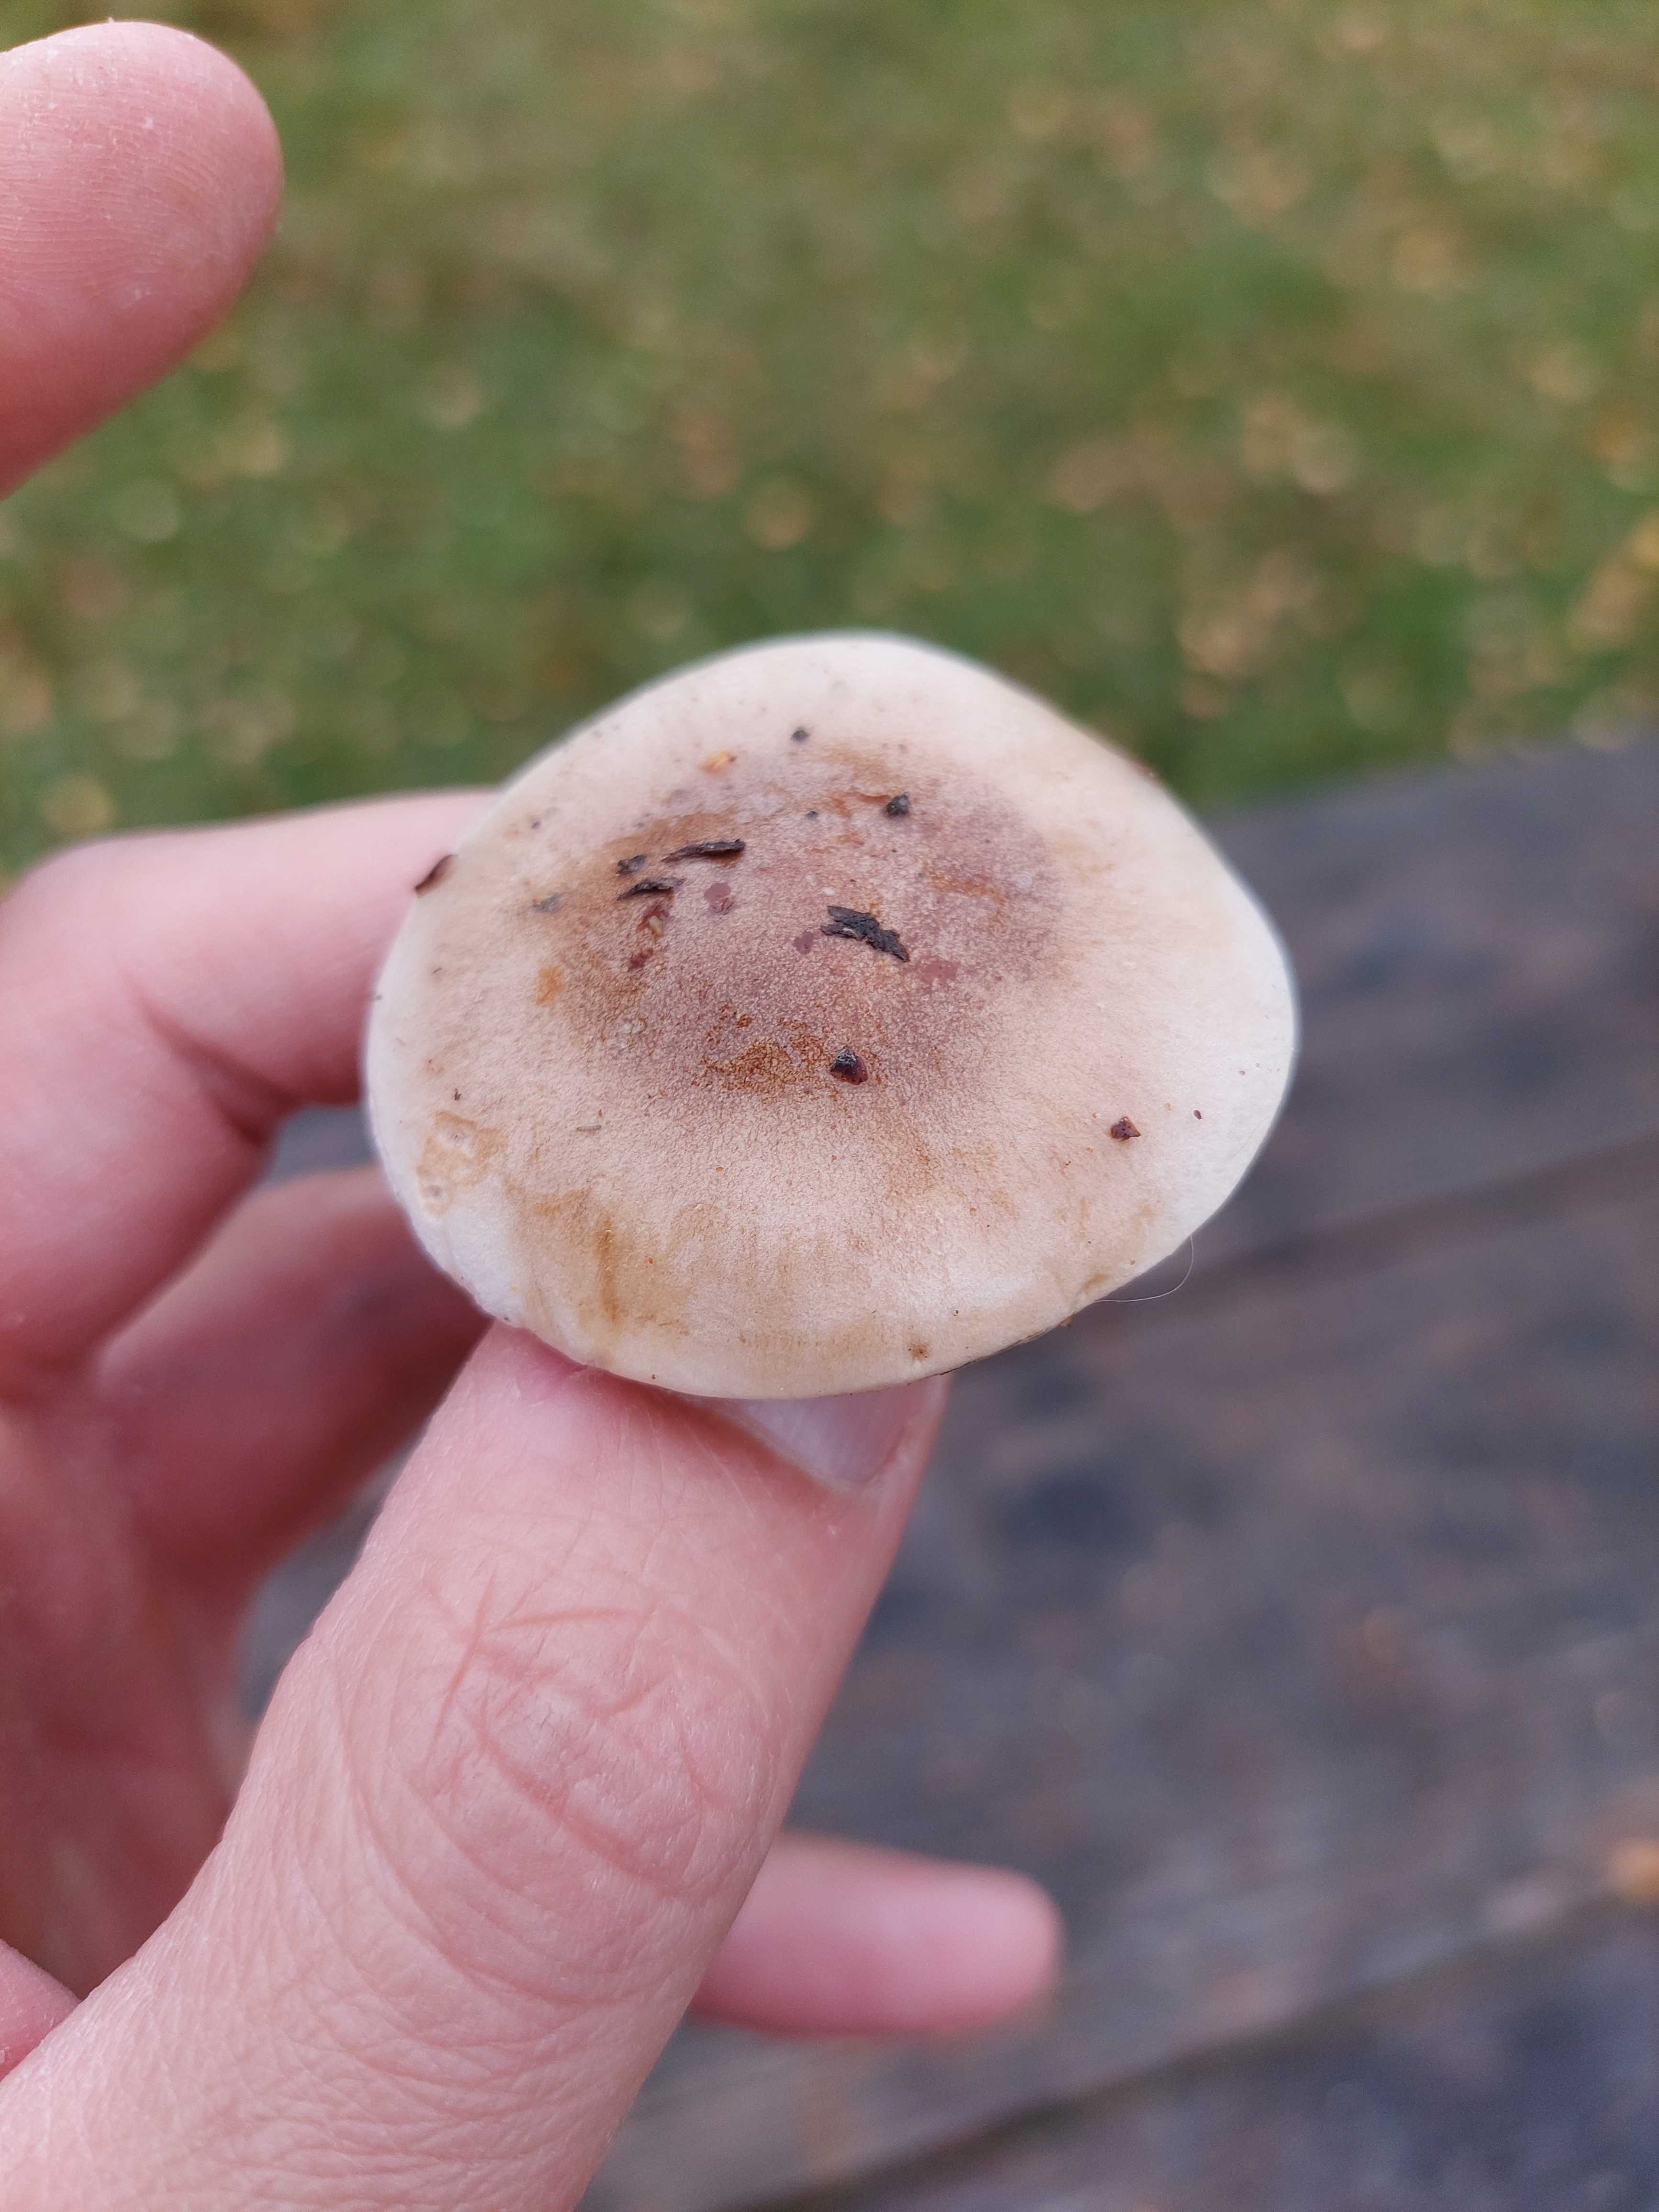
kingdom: Fungi
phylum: Basidiomycota
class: Agaricomycetes
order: Agaricales
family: Hymenogastraceae
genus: Hebeloma
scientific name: Hebeloma
